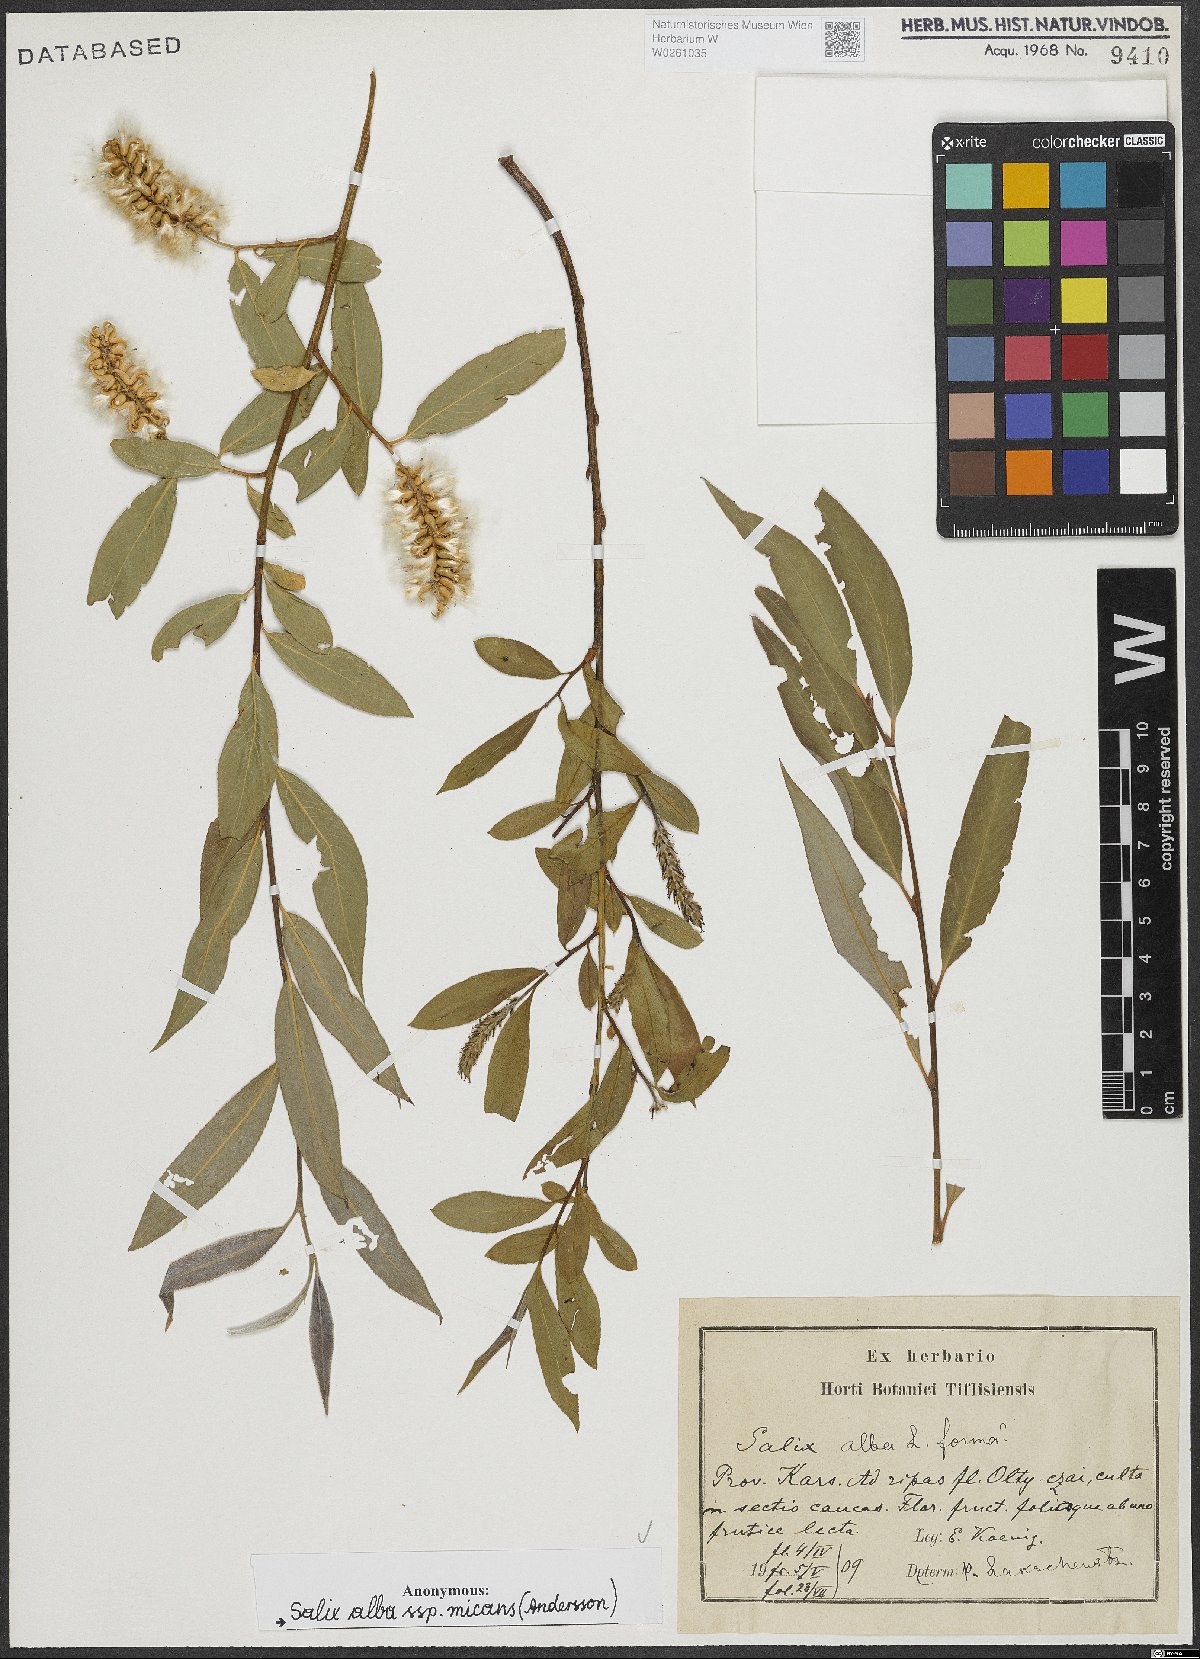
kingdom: Plantae
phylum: Tracheophyta
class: Magnoliopsida
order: Malpighiales
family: Salicaceae
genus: Salix
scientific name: Salix alba
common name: White willow
